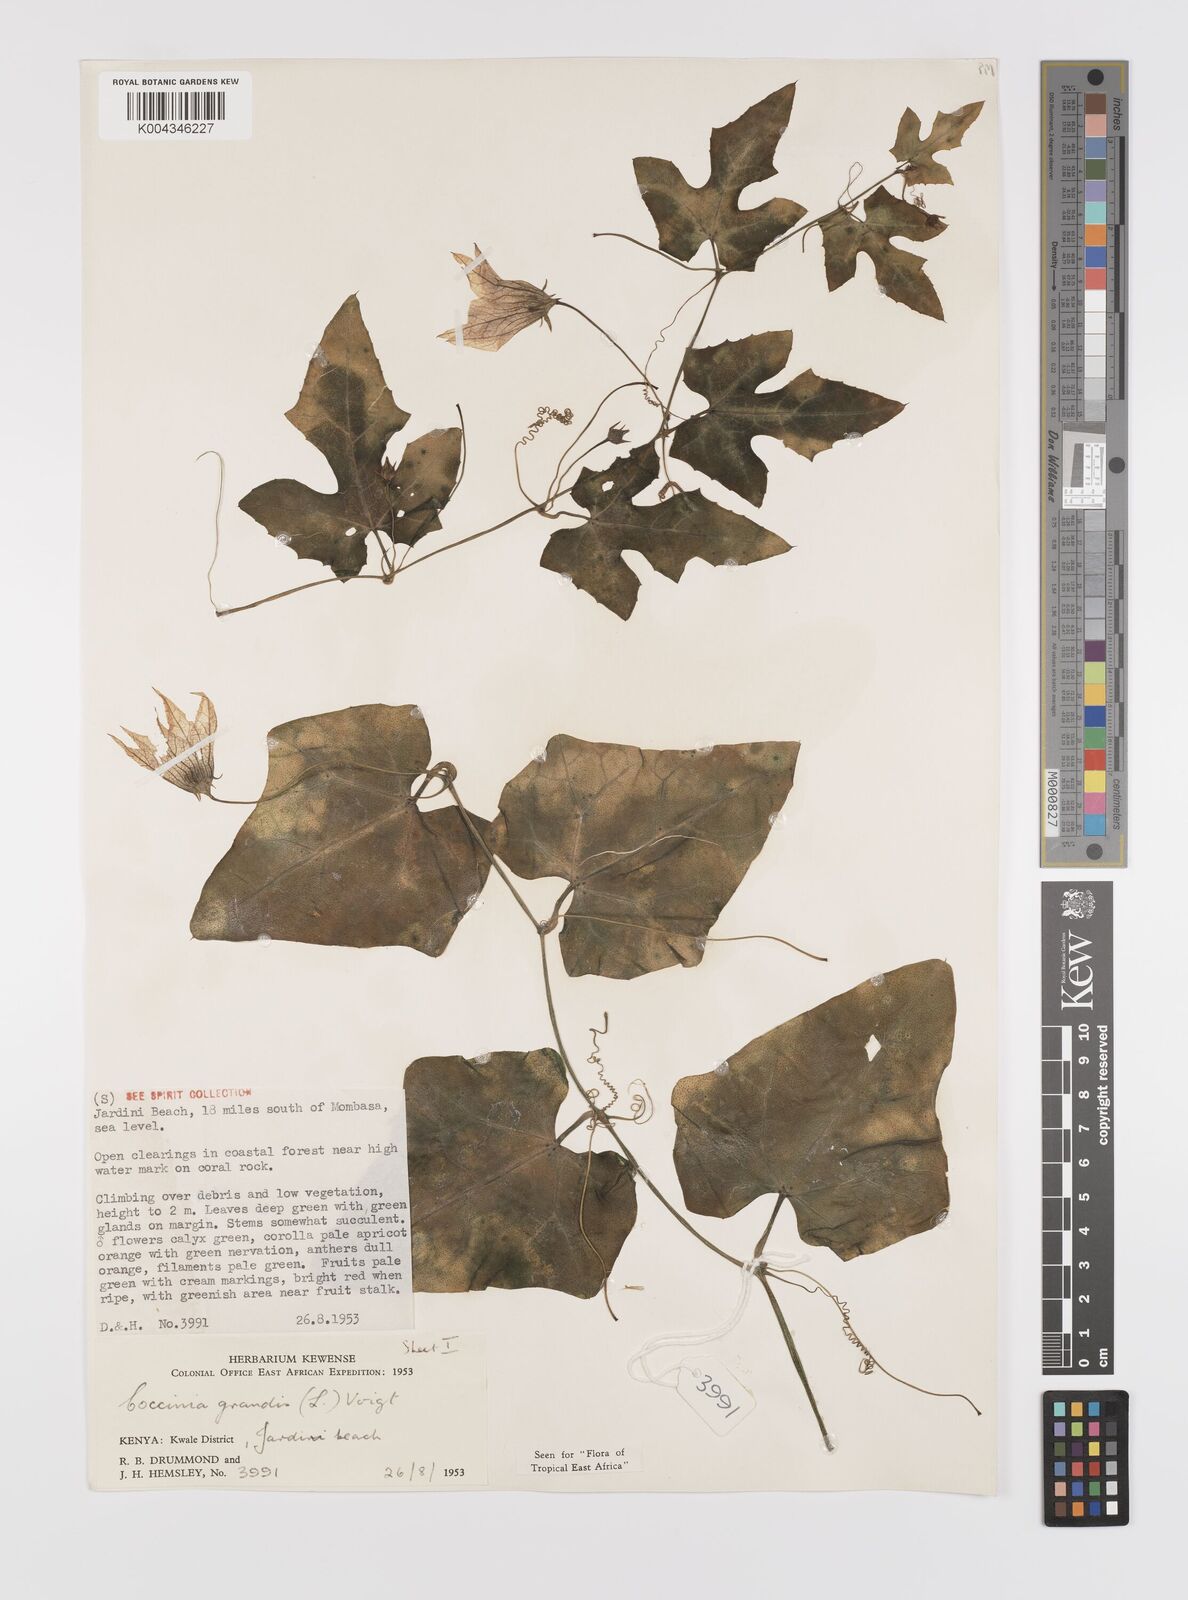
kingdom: Plantae
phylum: Tracheophyta
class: Magnoliopsida
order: Cucurbitales
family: Cucurbitaceae
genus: Coccinia
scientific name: Coccinia grandis
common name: Ivy gourd
